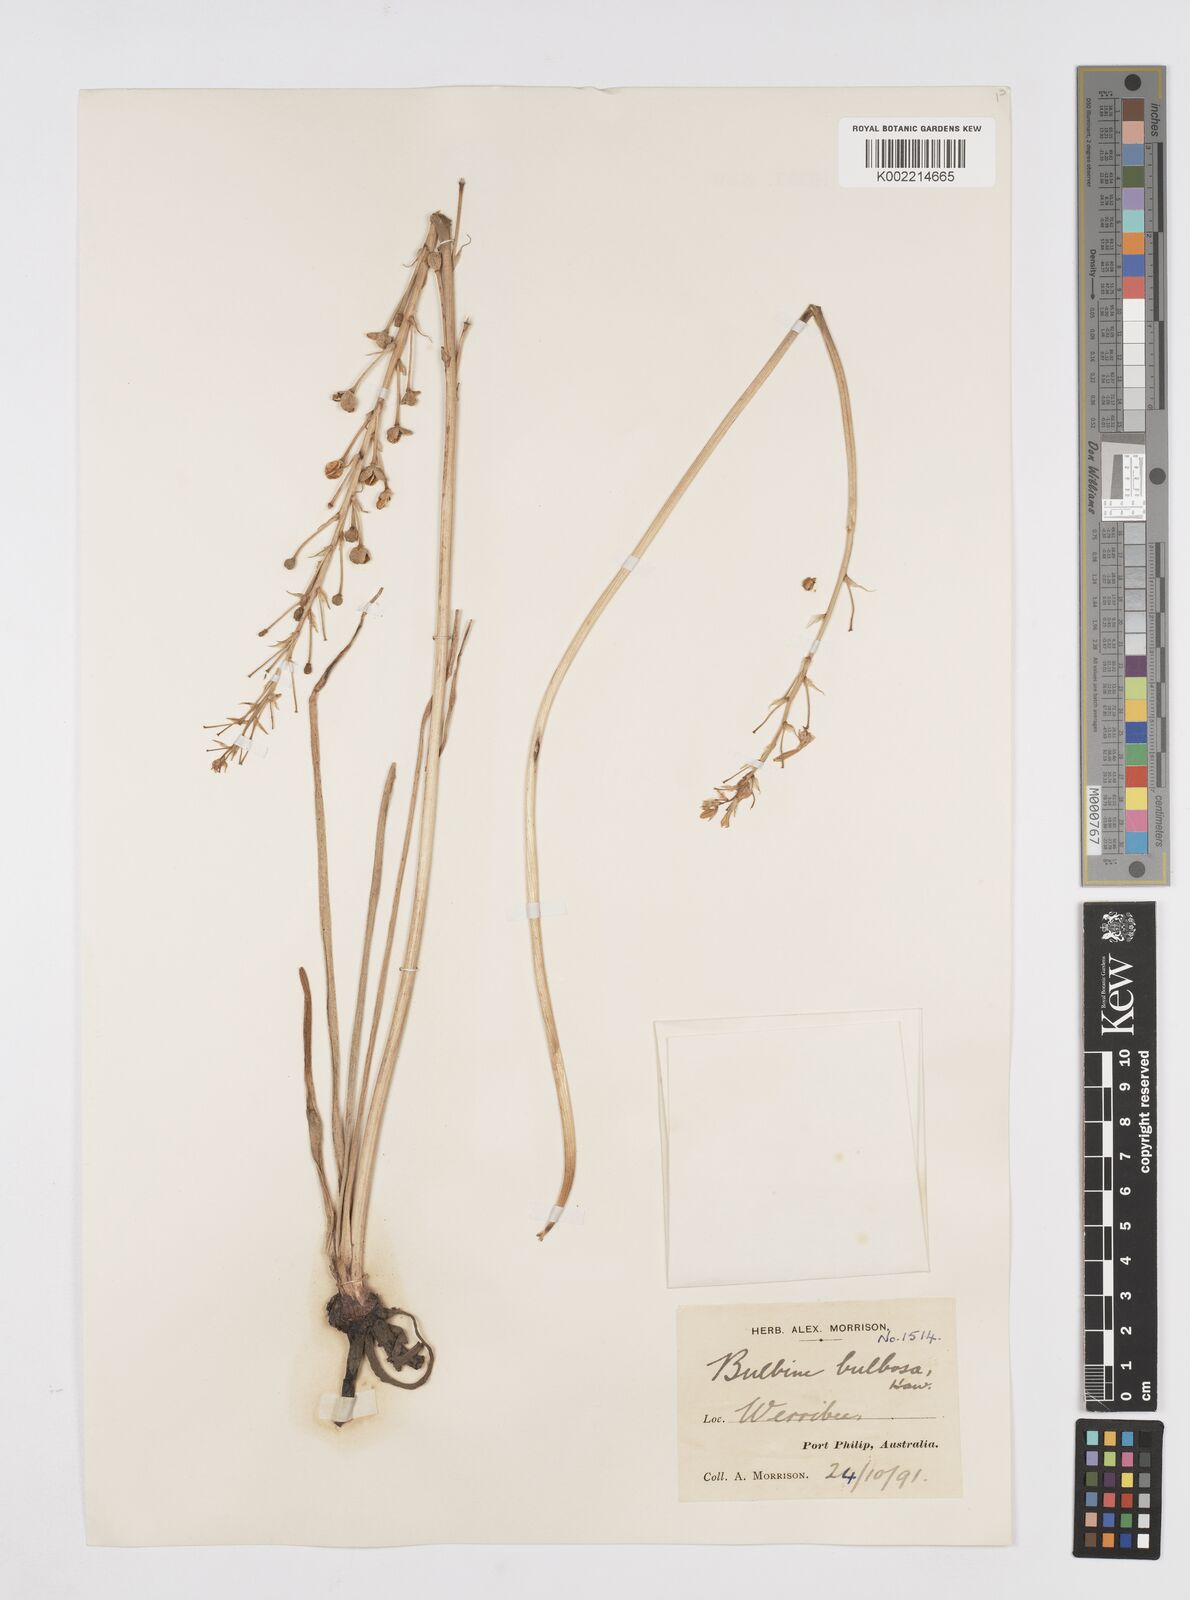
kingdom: Plantae
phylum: Tracheophyta
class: Liliopsida
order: Asparagales
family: Asphodelaceae
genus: Bulbine
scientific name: Bulbine bulbosa
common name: Golden-lily
